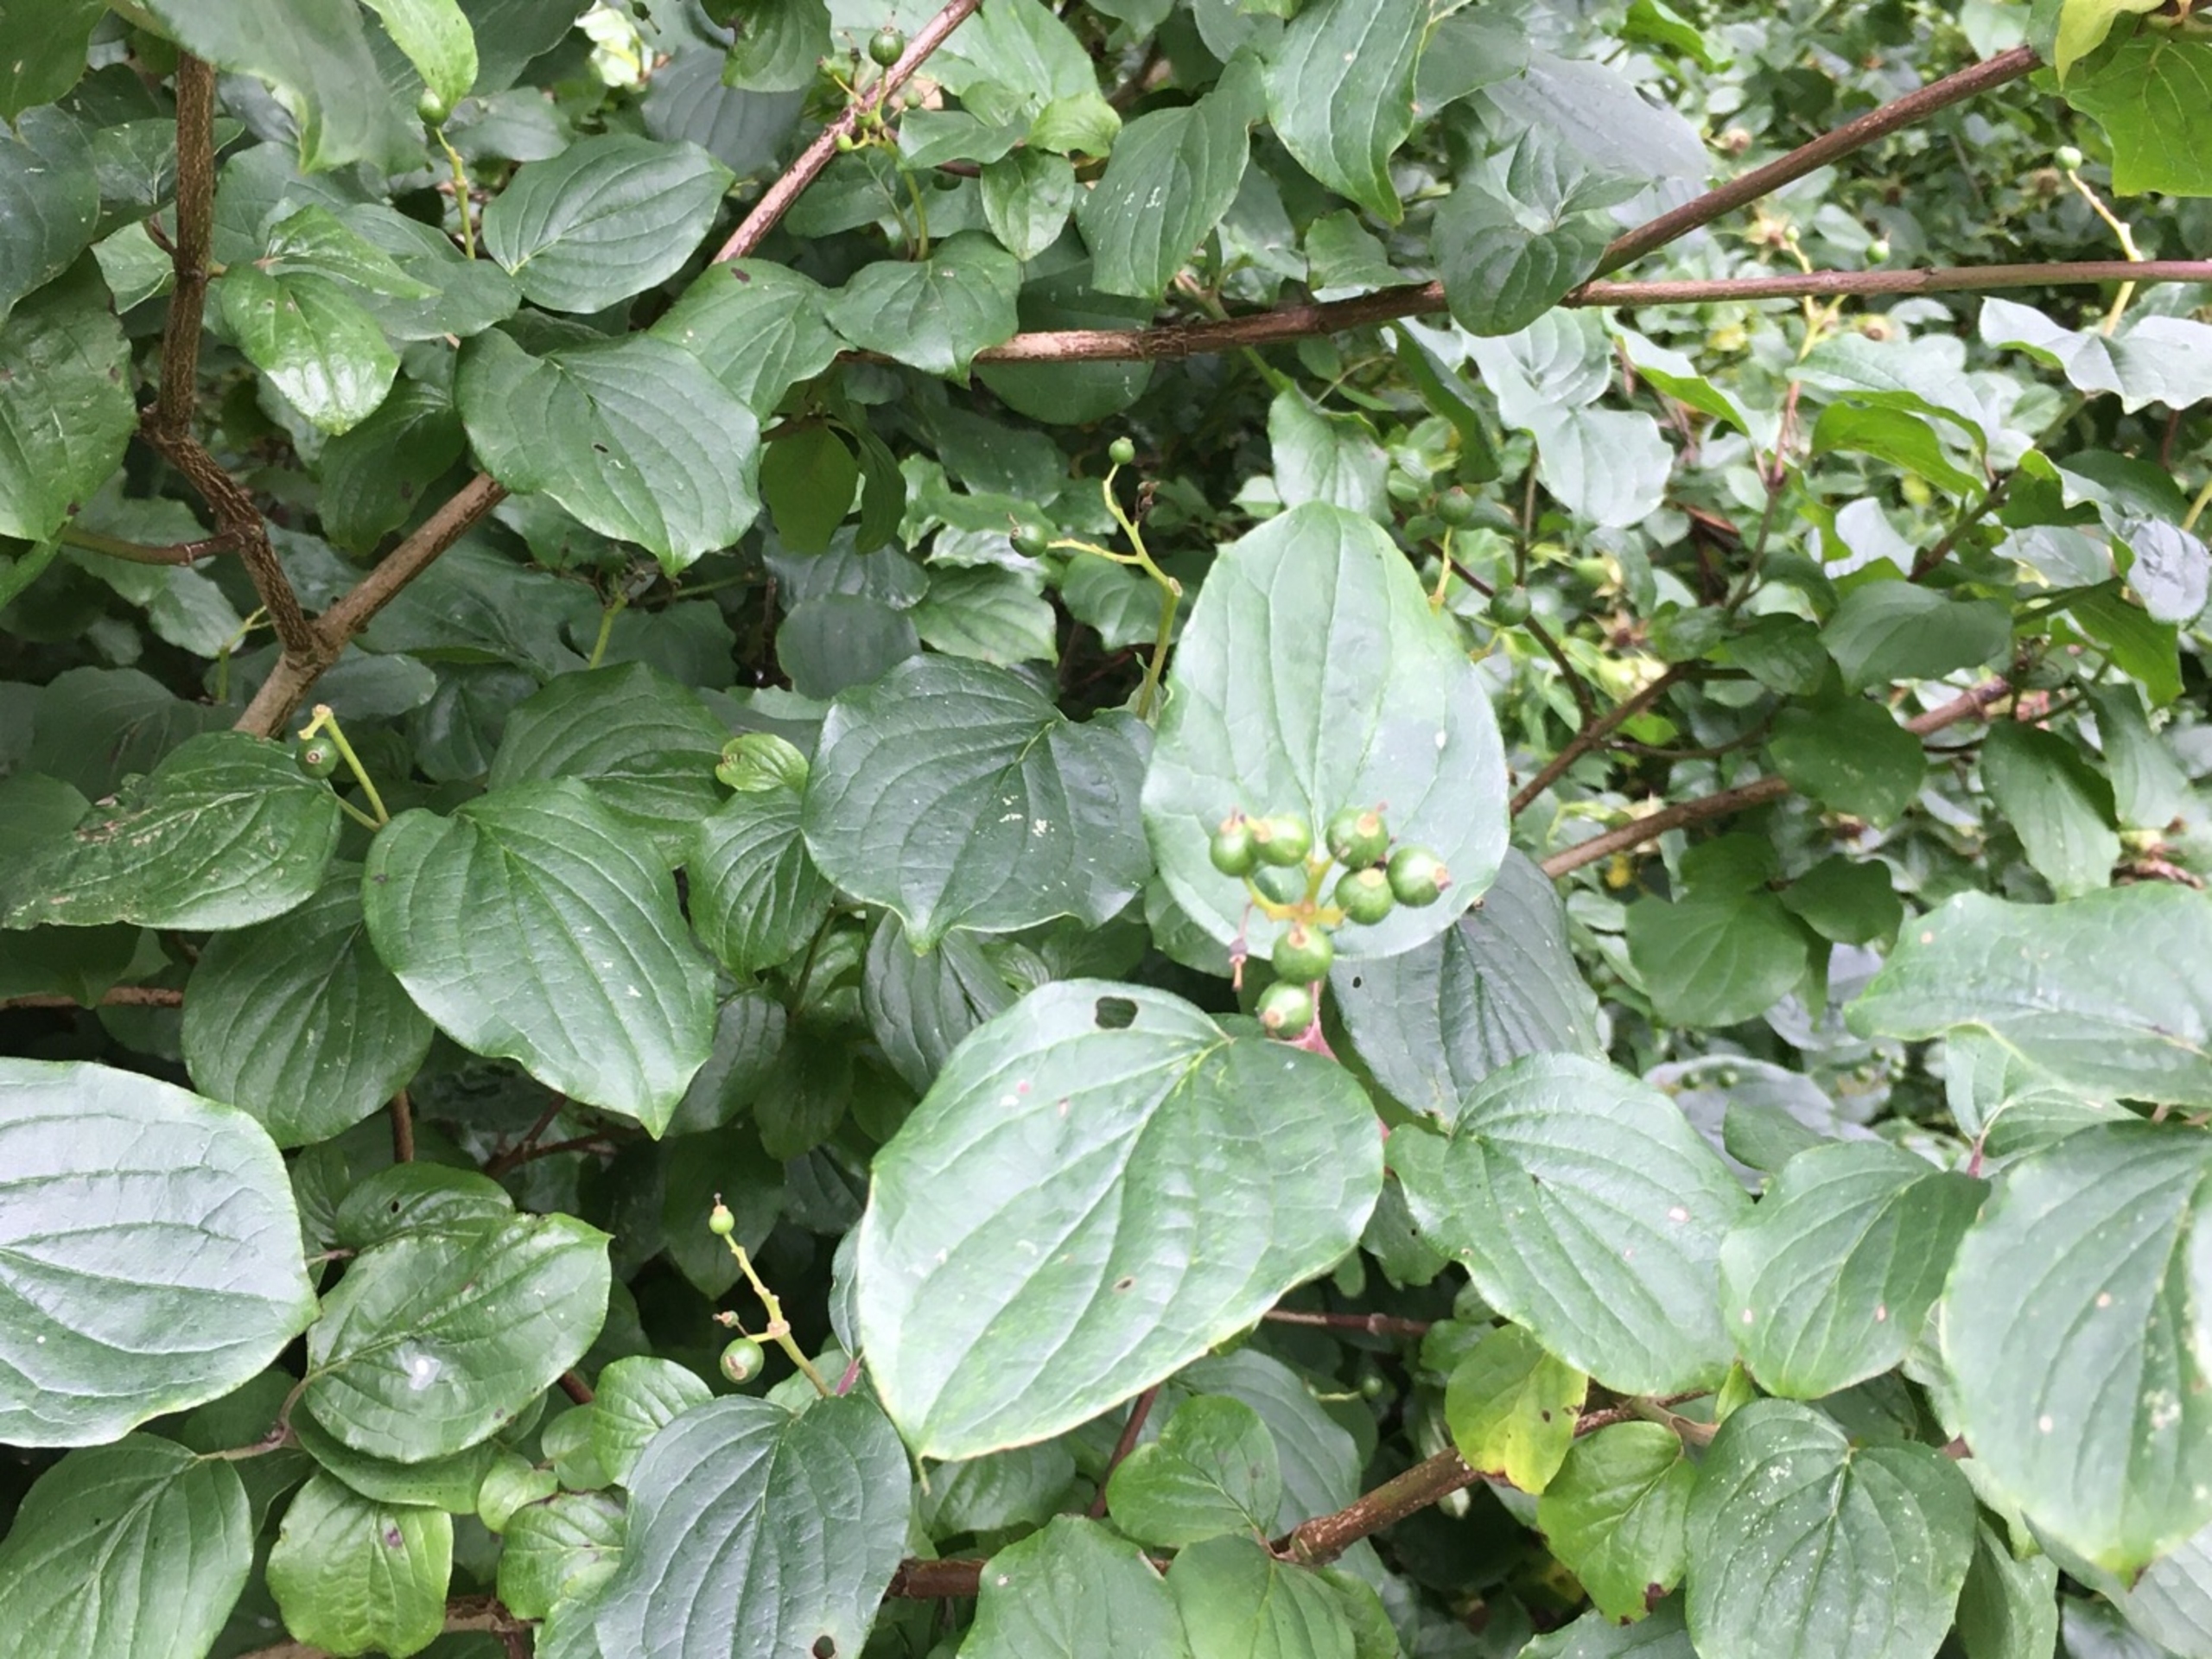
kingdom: Plantae
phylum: Tracheophyta
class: Magnoliopsida
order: Cornales
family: Cornaceae
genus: Cornus
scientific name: Cornus sanguinea
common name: Rød kornel
